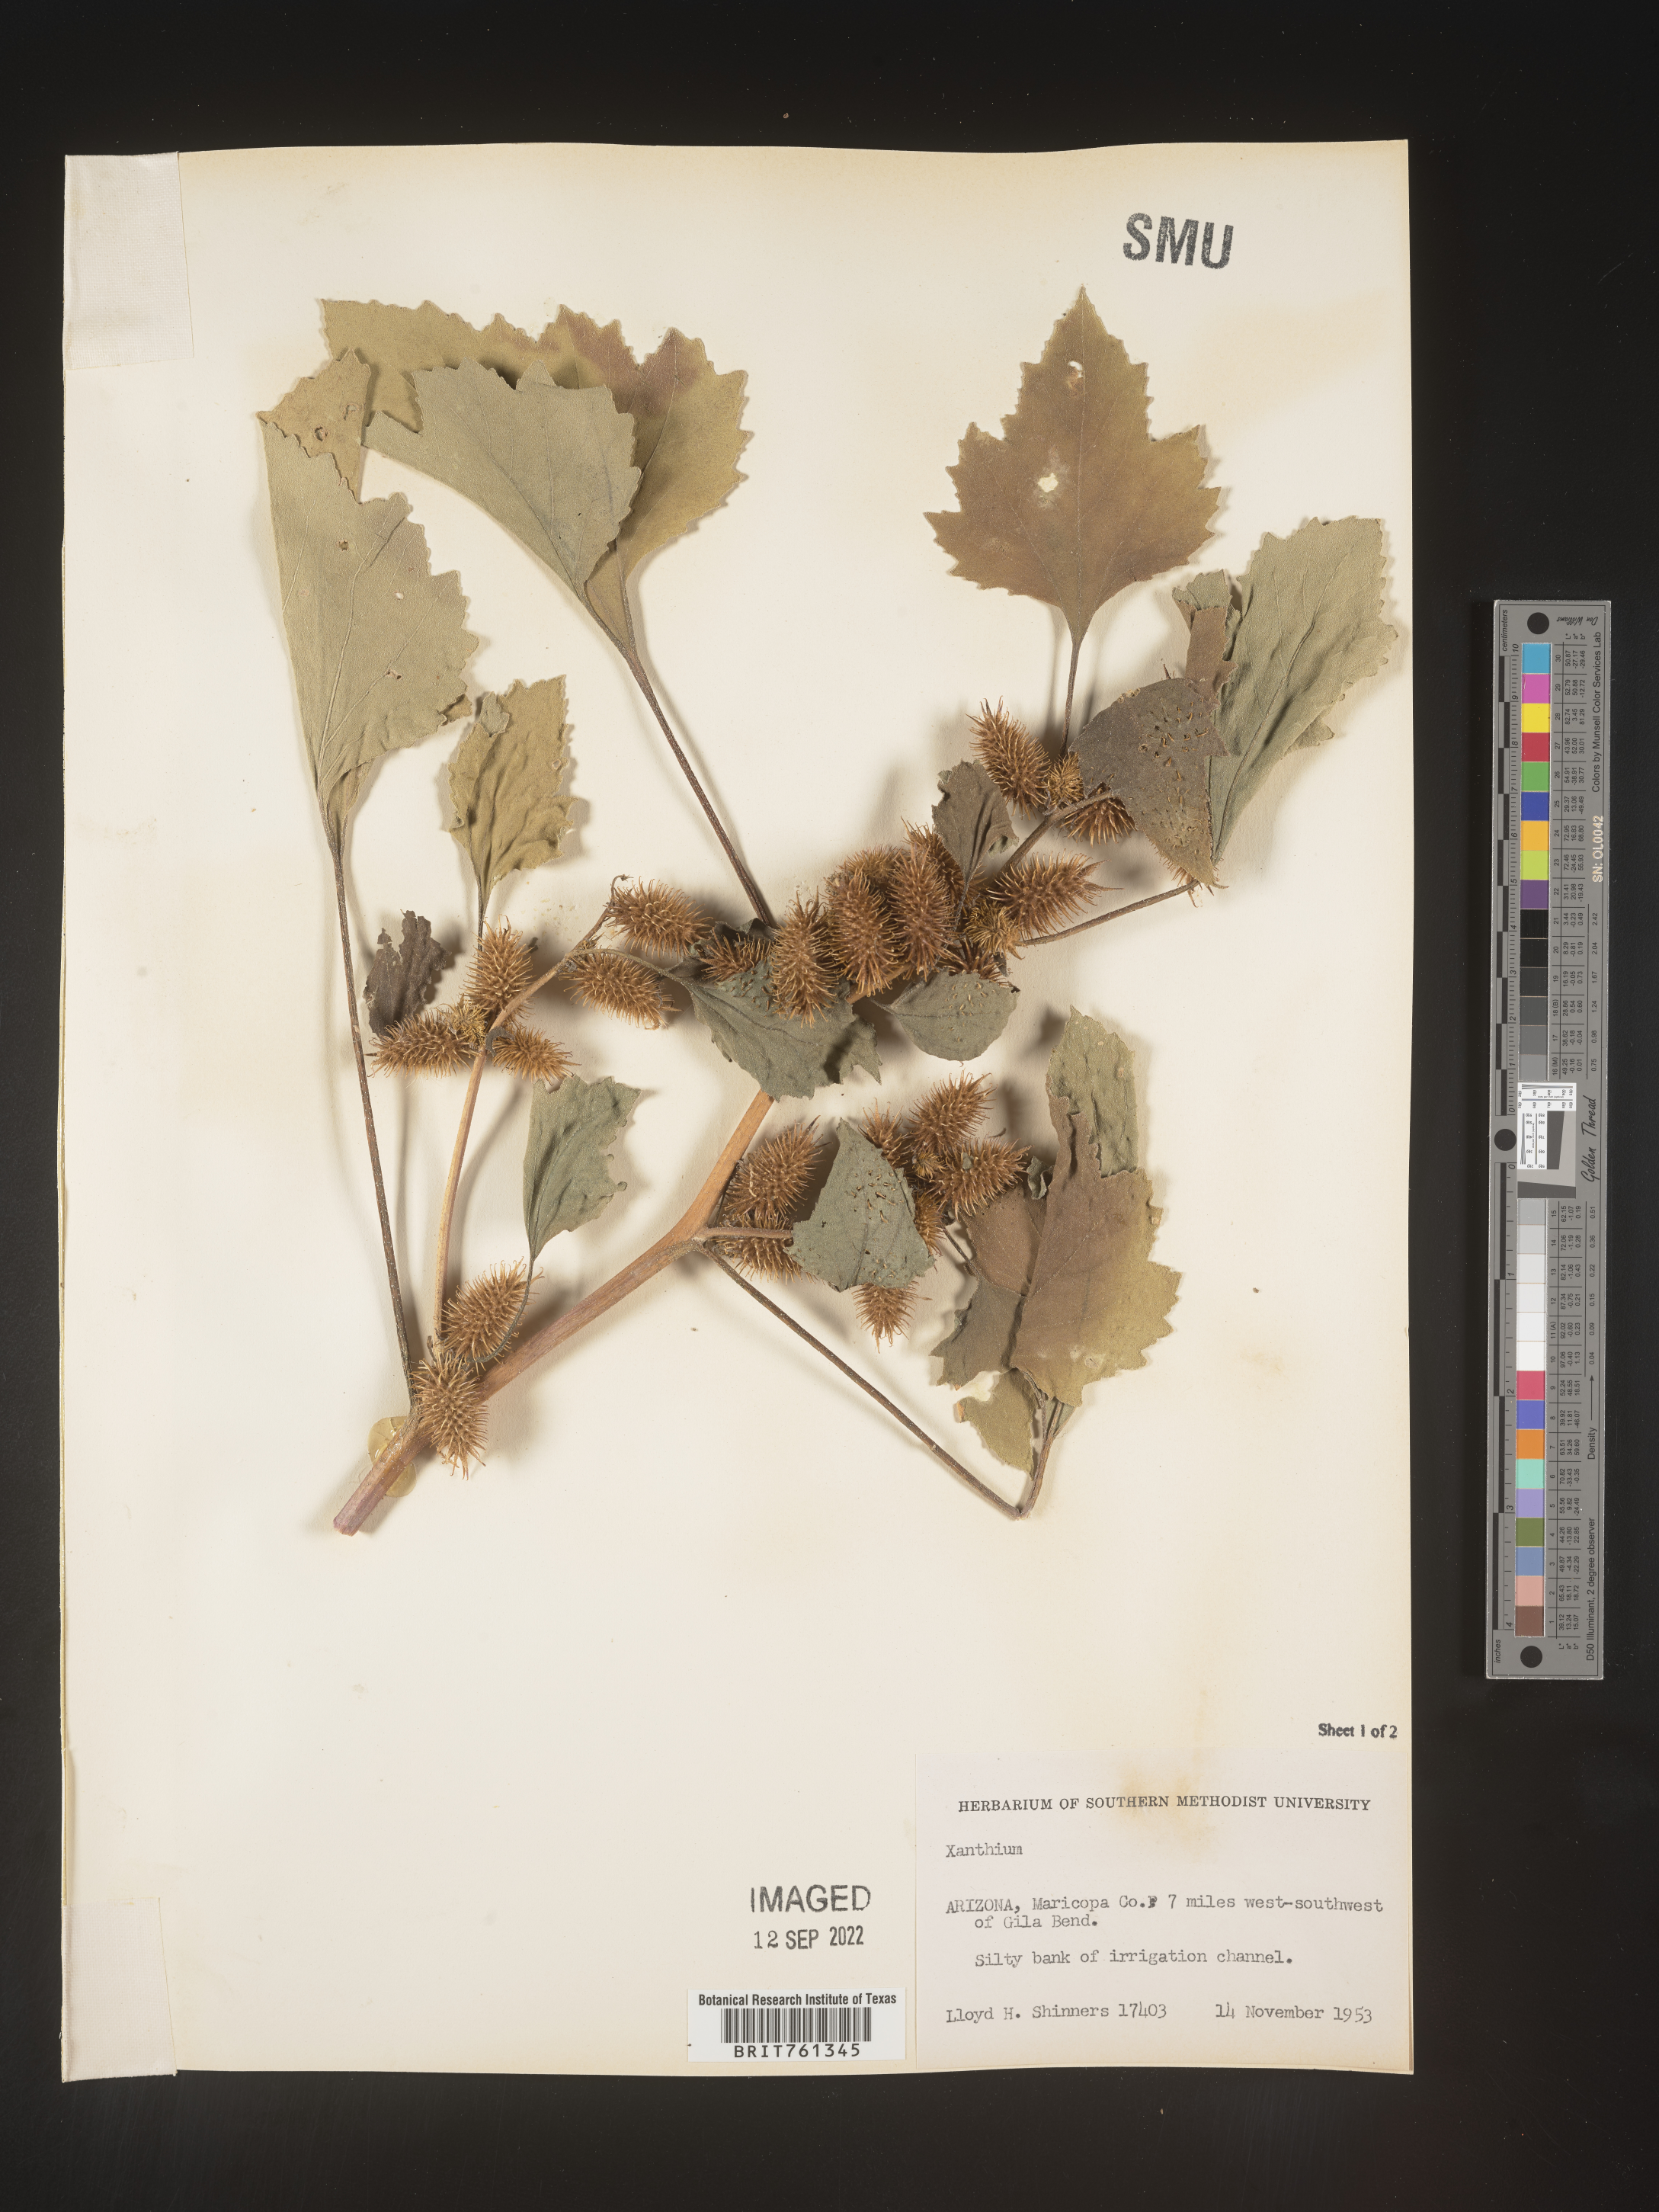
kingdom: Plantae
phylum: Tracheophyta
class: Magnoliopsida
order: Asterales
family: Asteraceae
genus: Xanthium
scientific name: Xanthium
